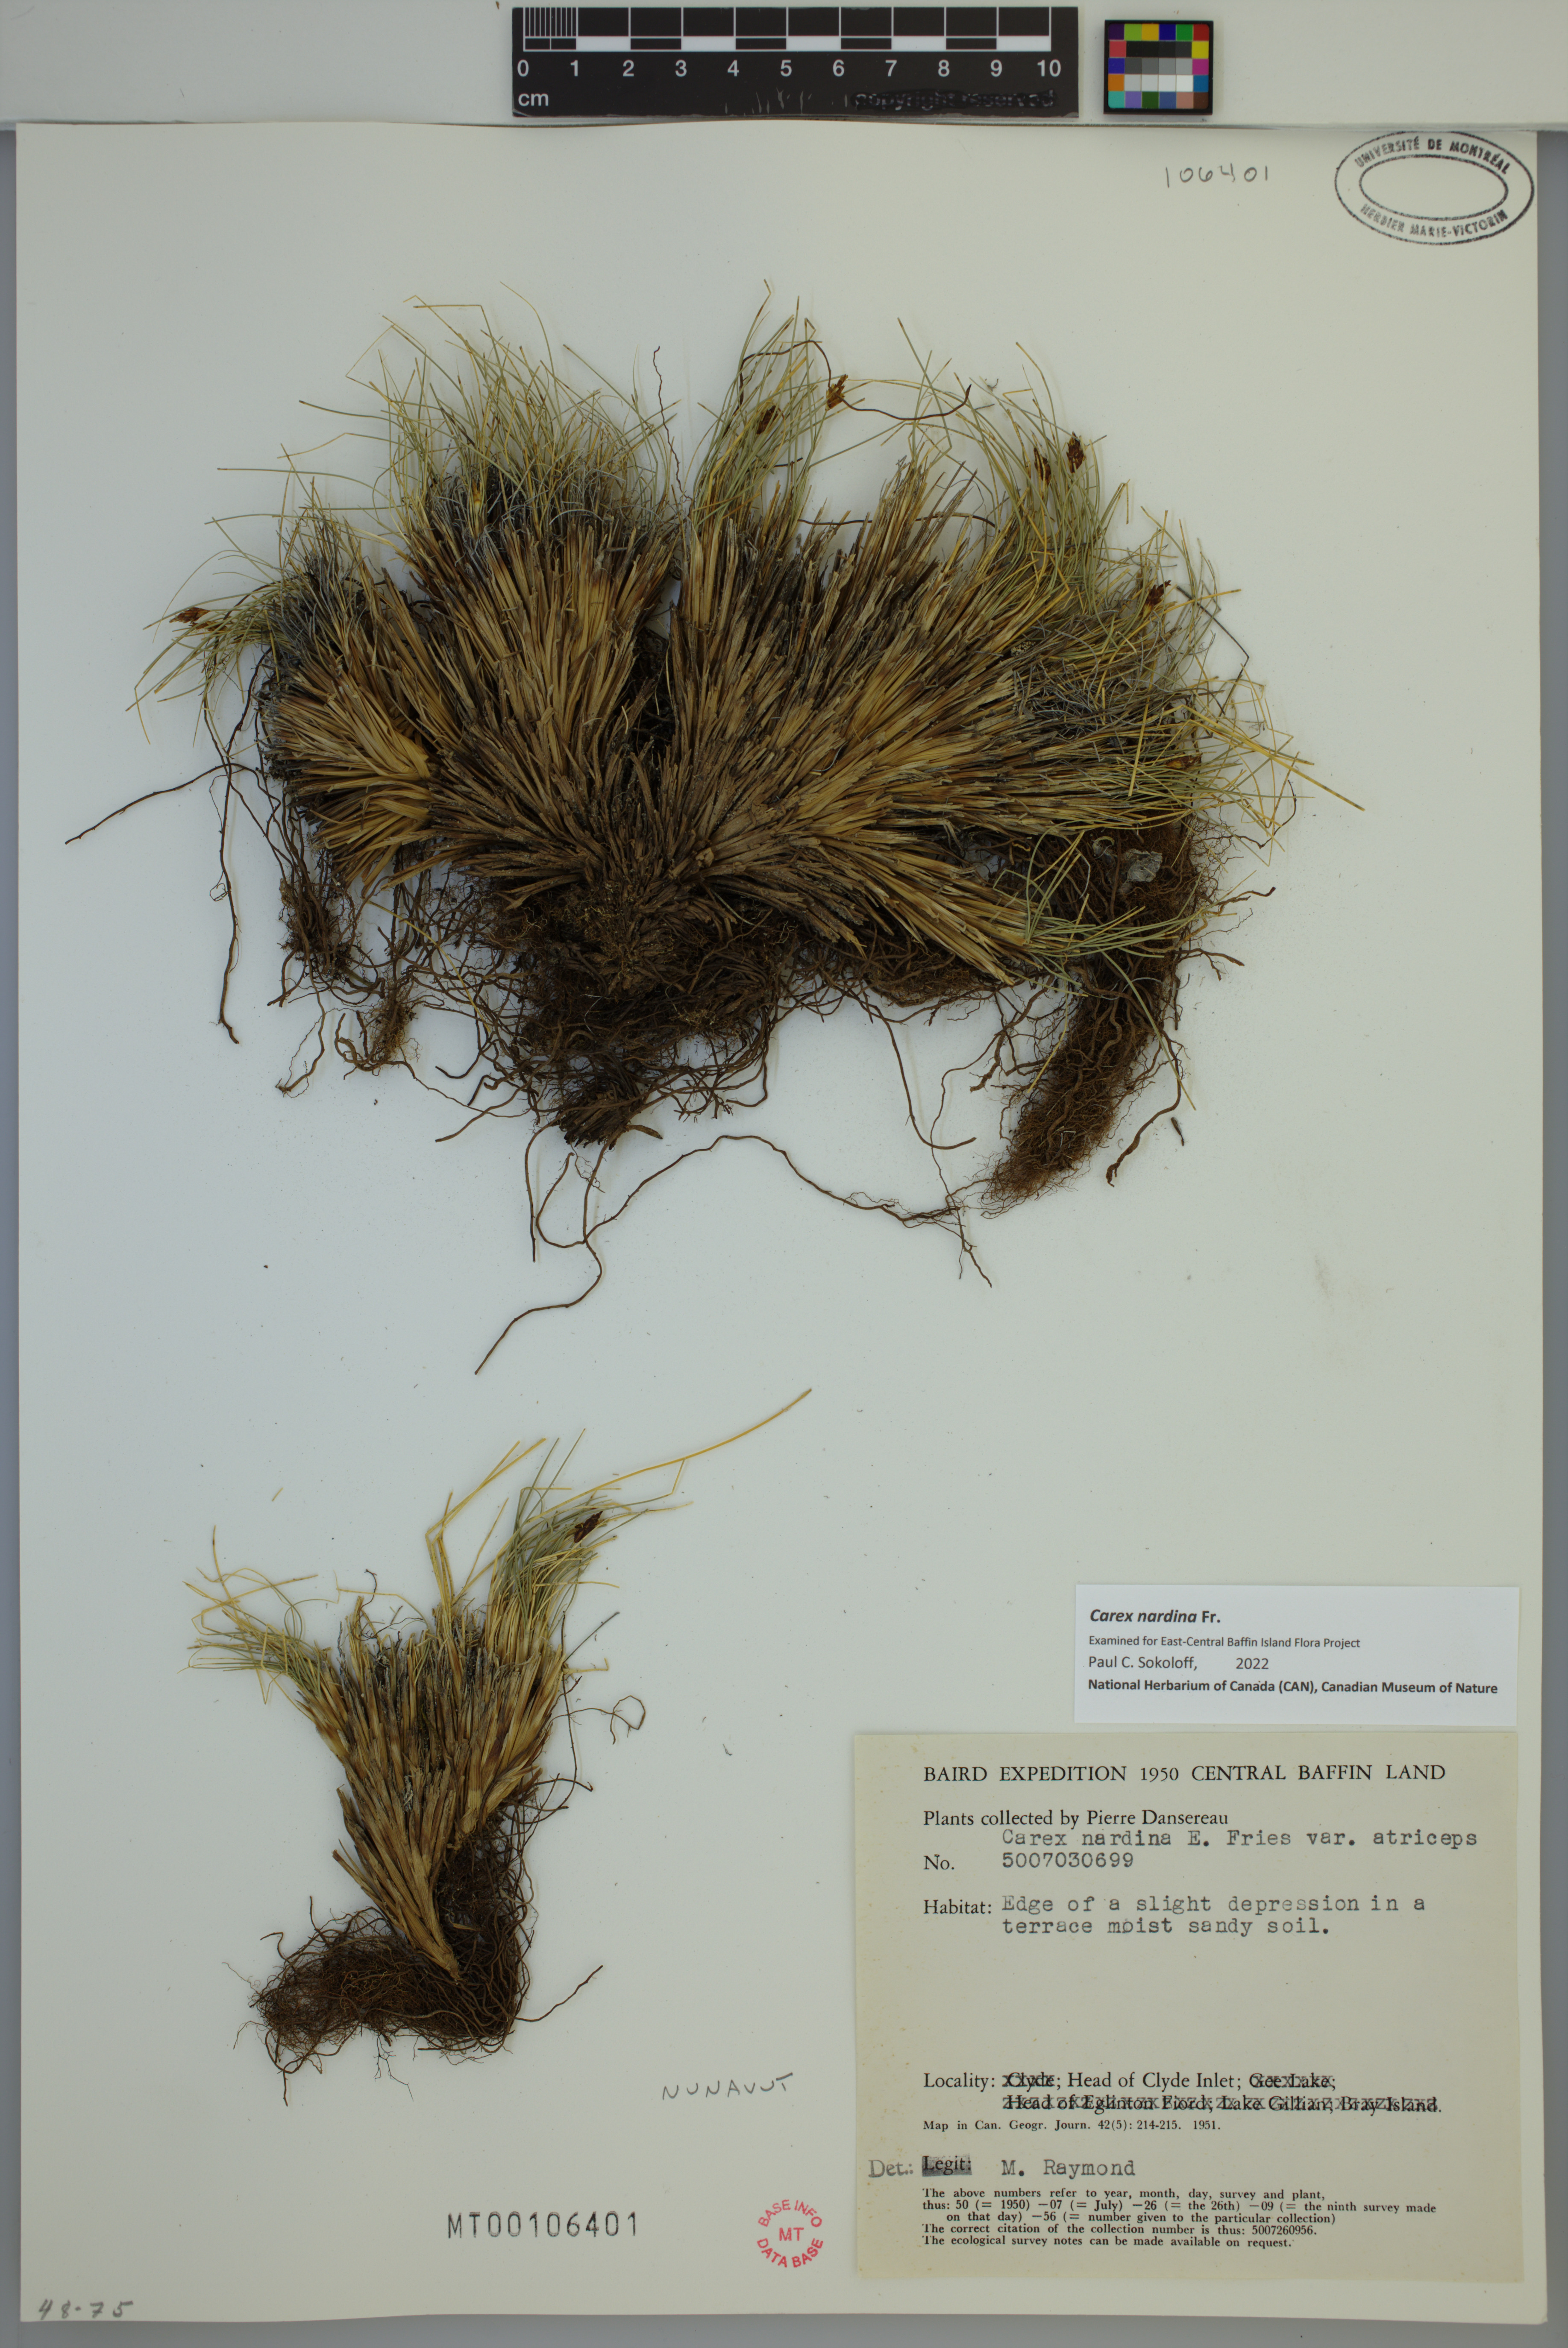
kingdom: Plantae
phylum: Tracheophyta
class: Liliopsida
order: Poales
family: Cyperaceae
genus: Carex
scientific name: Carex nardina
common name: Nard sedge
